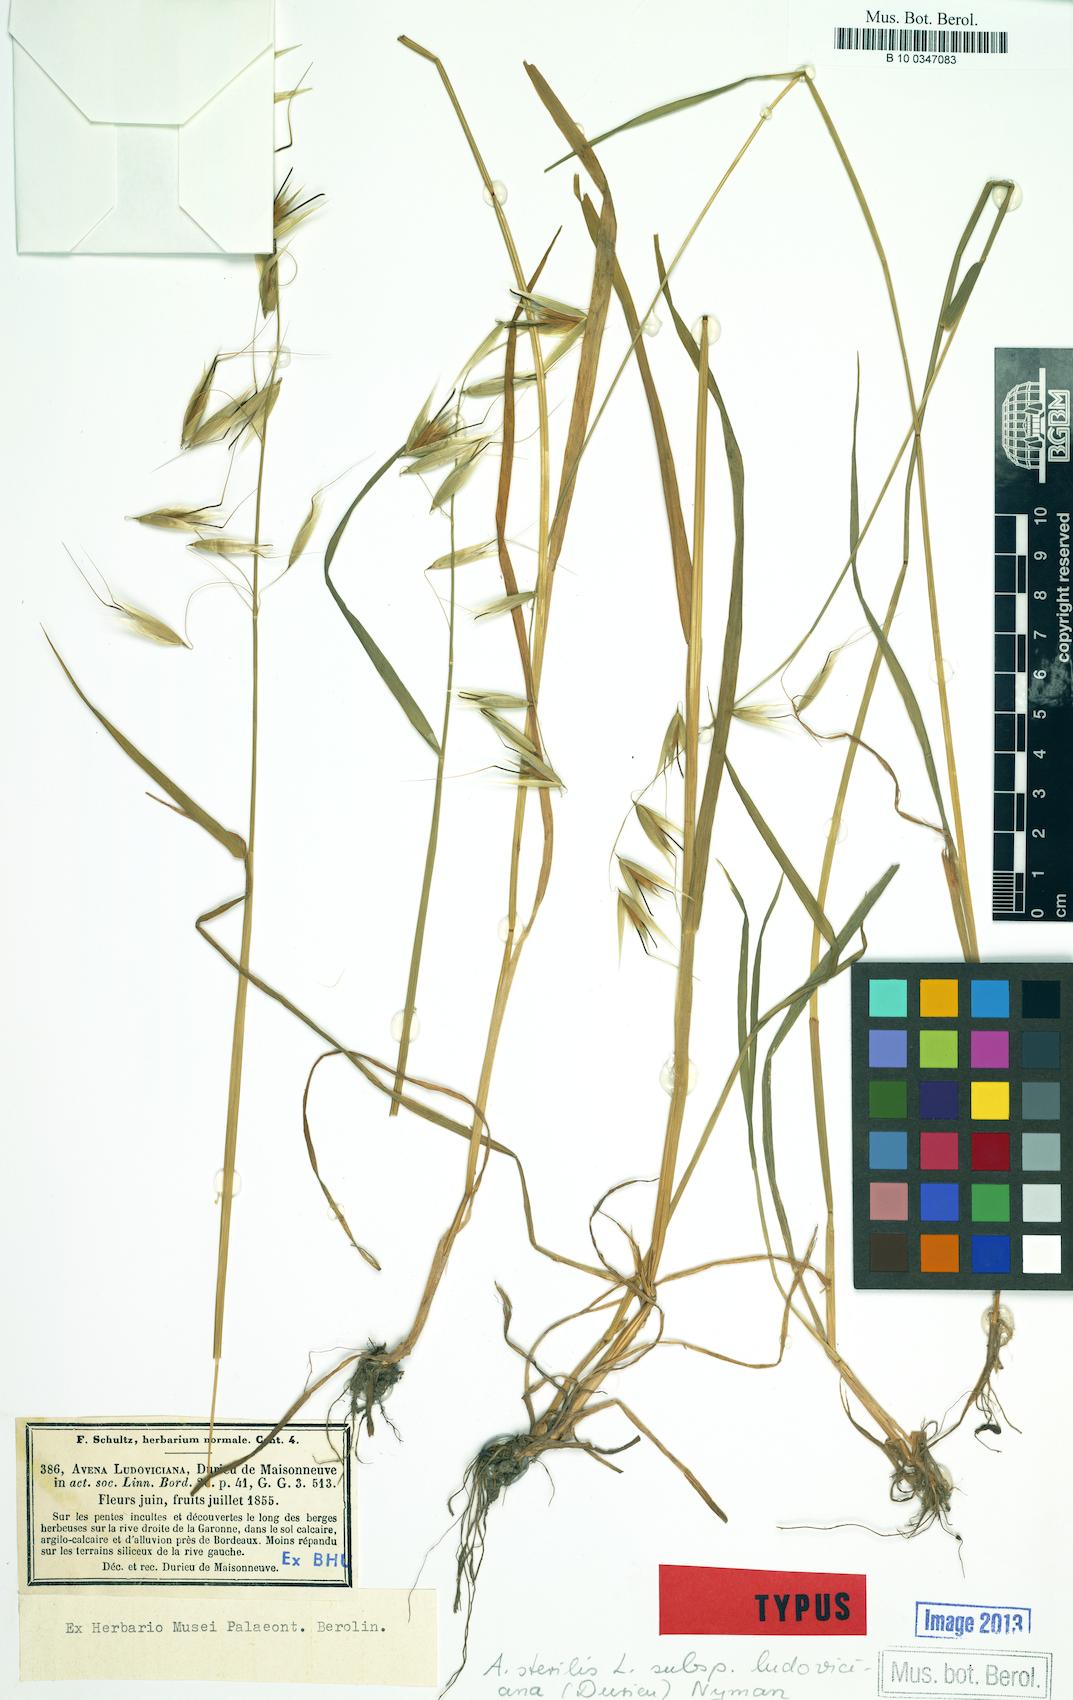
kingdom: Plantae
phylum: Tracheophyta
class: Liliopsida
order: Poales
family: Poaceae
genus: Avena
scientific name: Avena sterilis
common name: Animated oat
